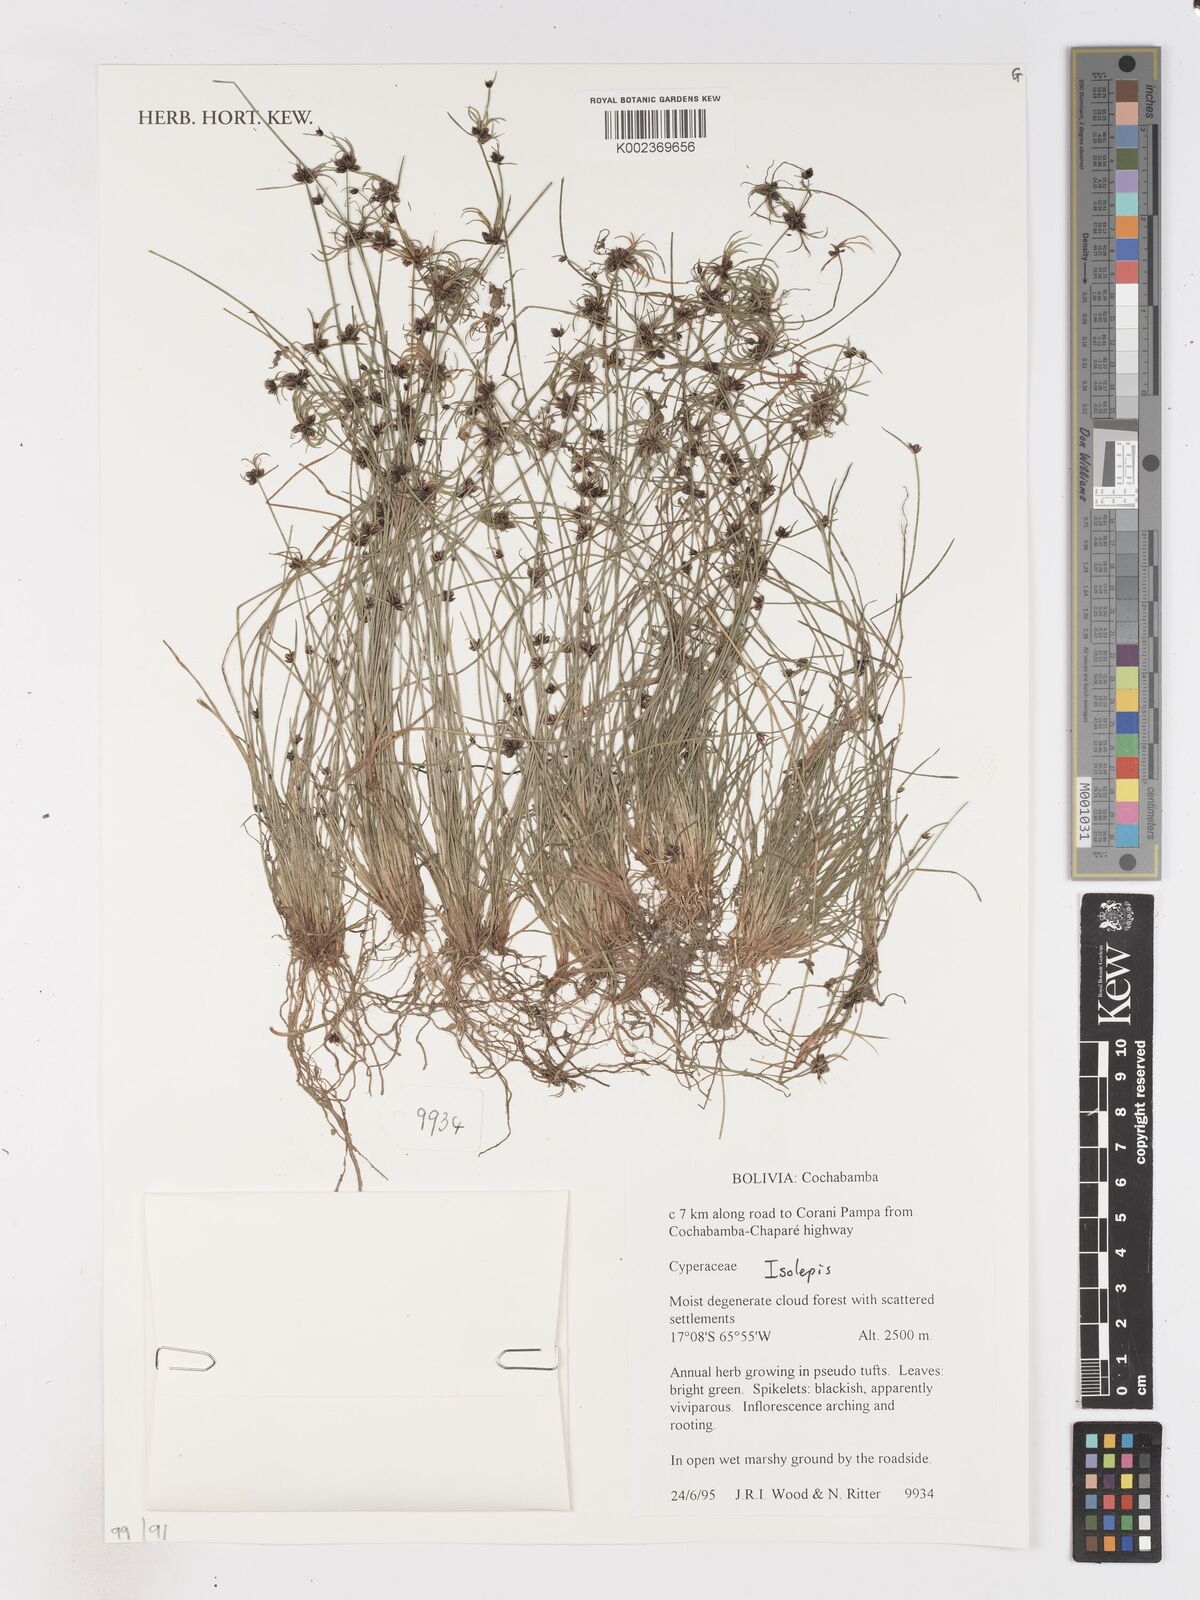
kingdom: Plantae
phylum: Tracheophyta
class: Liliopsida
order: Poales
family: Cyperaceae
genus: Isolepis
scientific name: Isolepis
